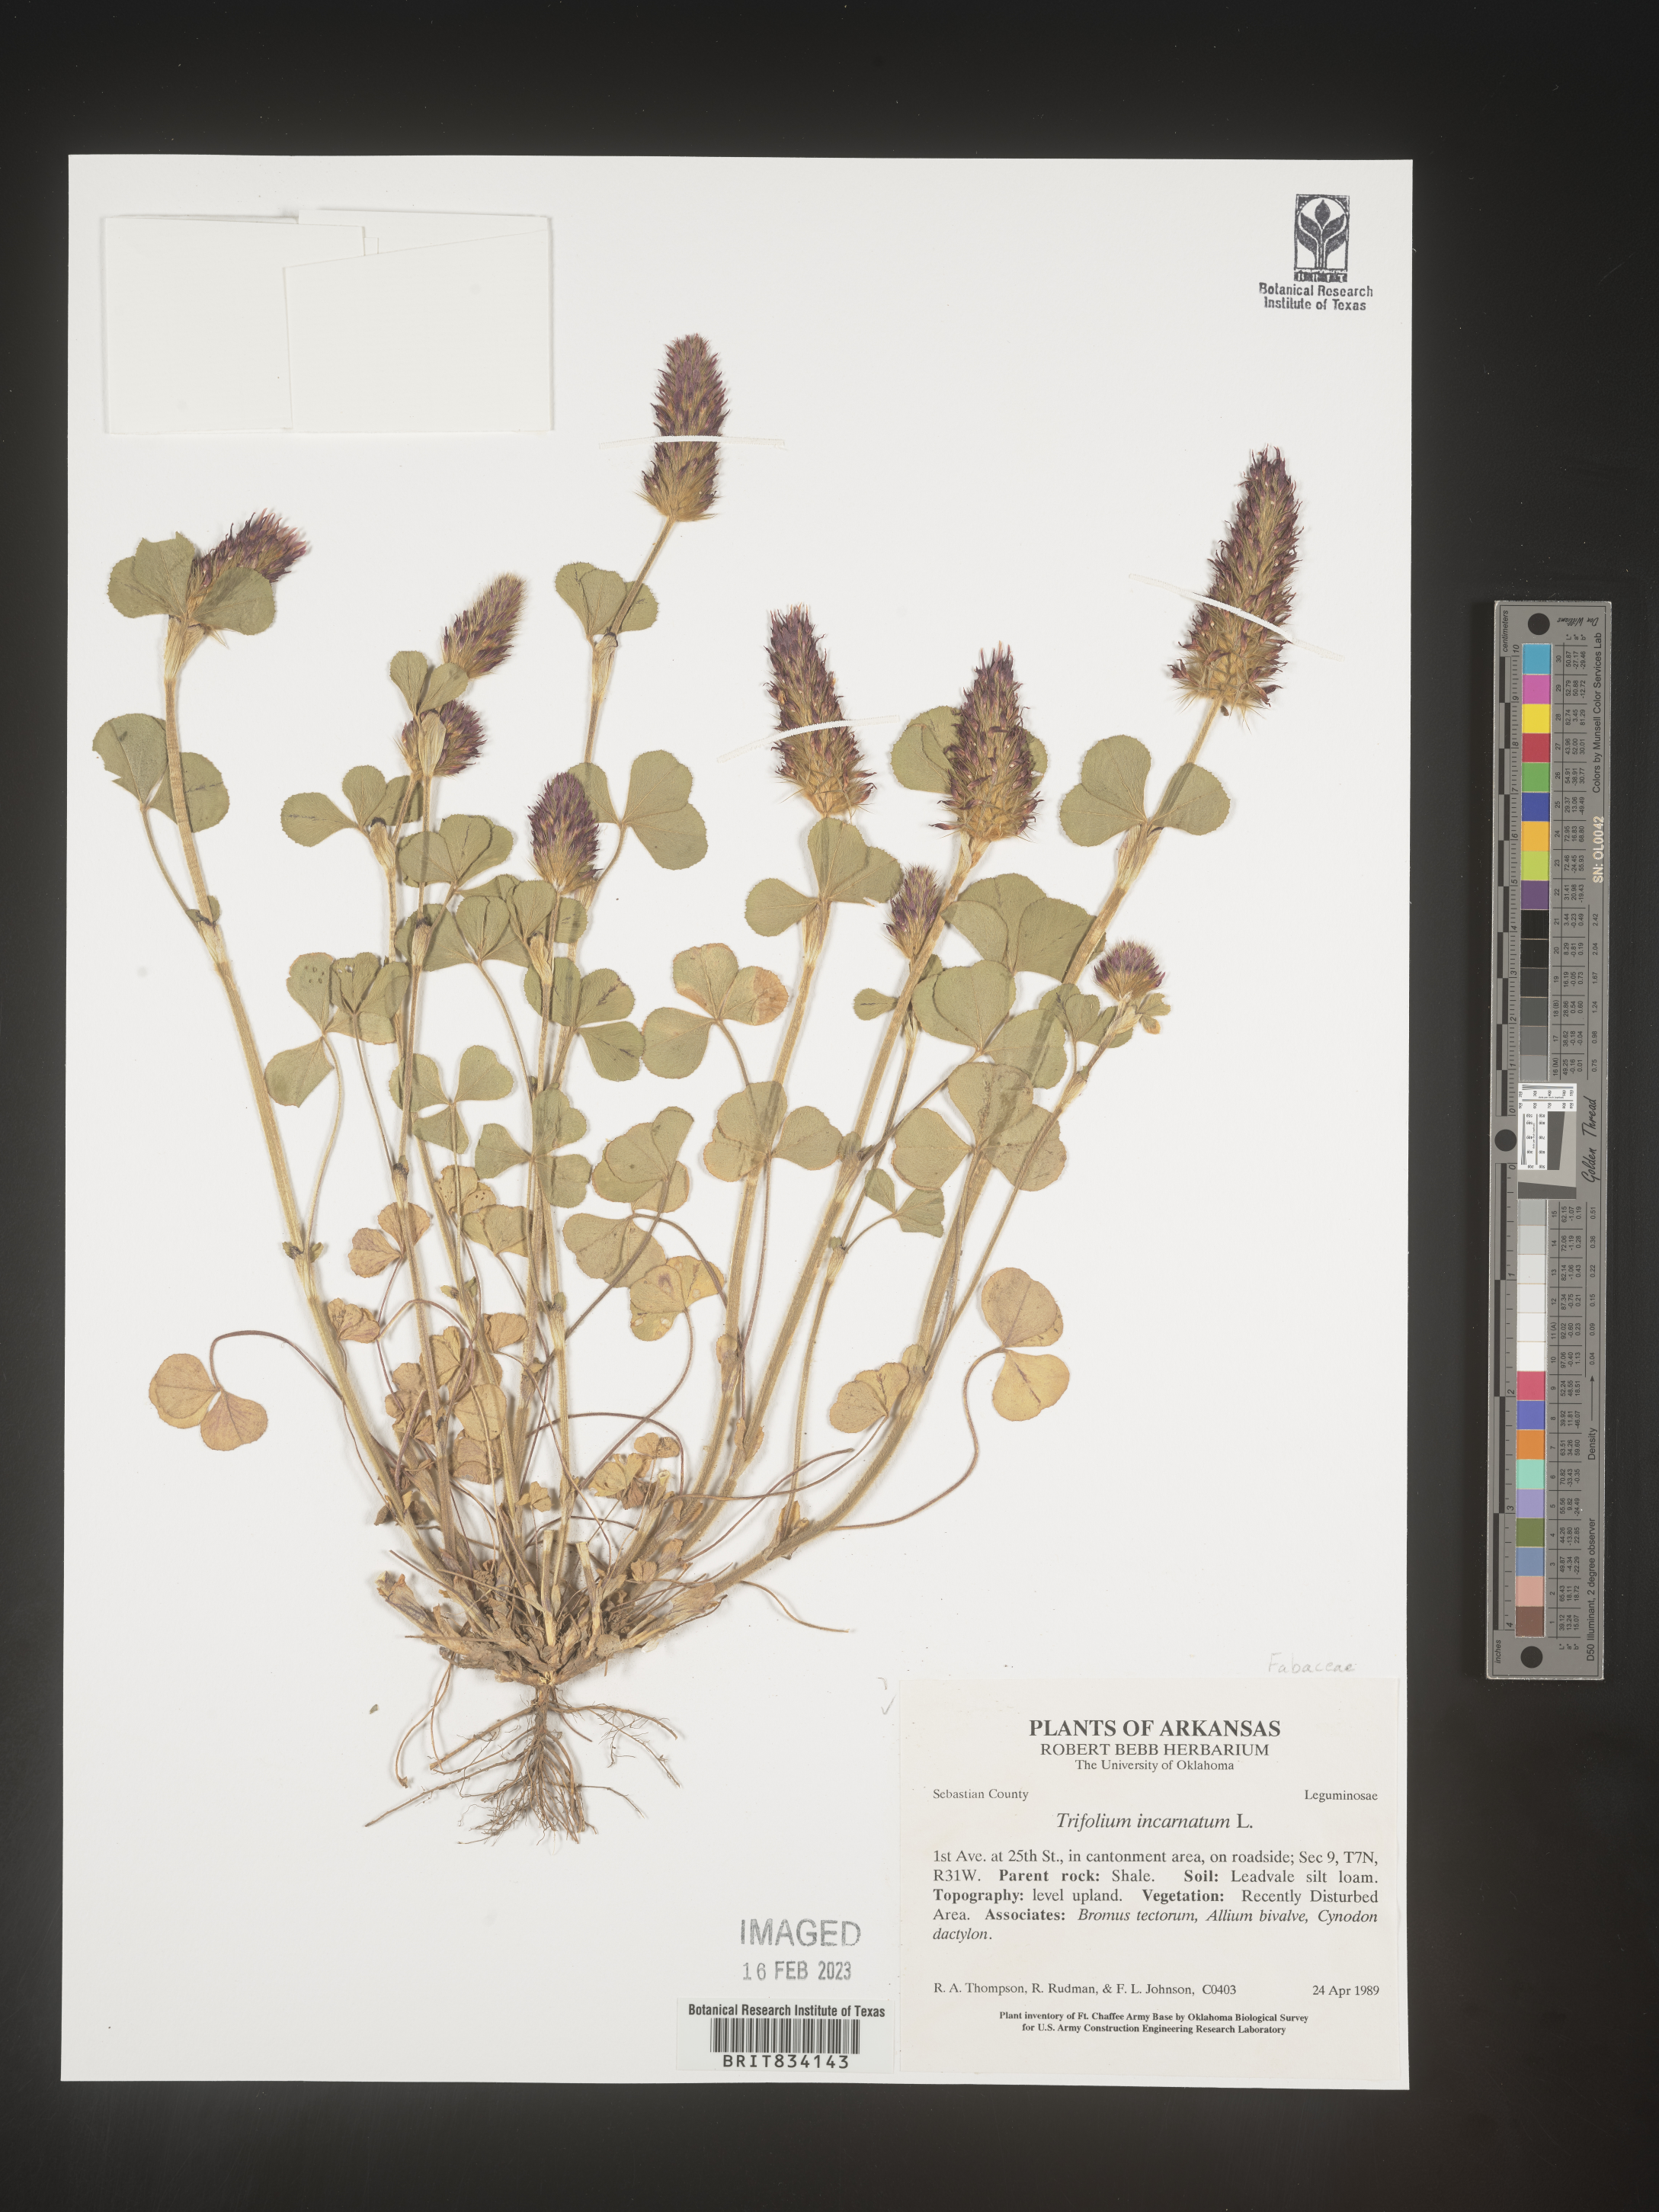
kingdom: Plantae
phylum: Tracheophyta
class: Magnoliopsida
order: Fabales
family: Fabaceae
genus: Trifolium
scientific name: Trifolium incarnatum
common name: Crimson clover
